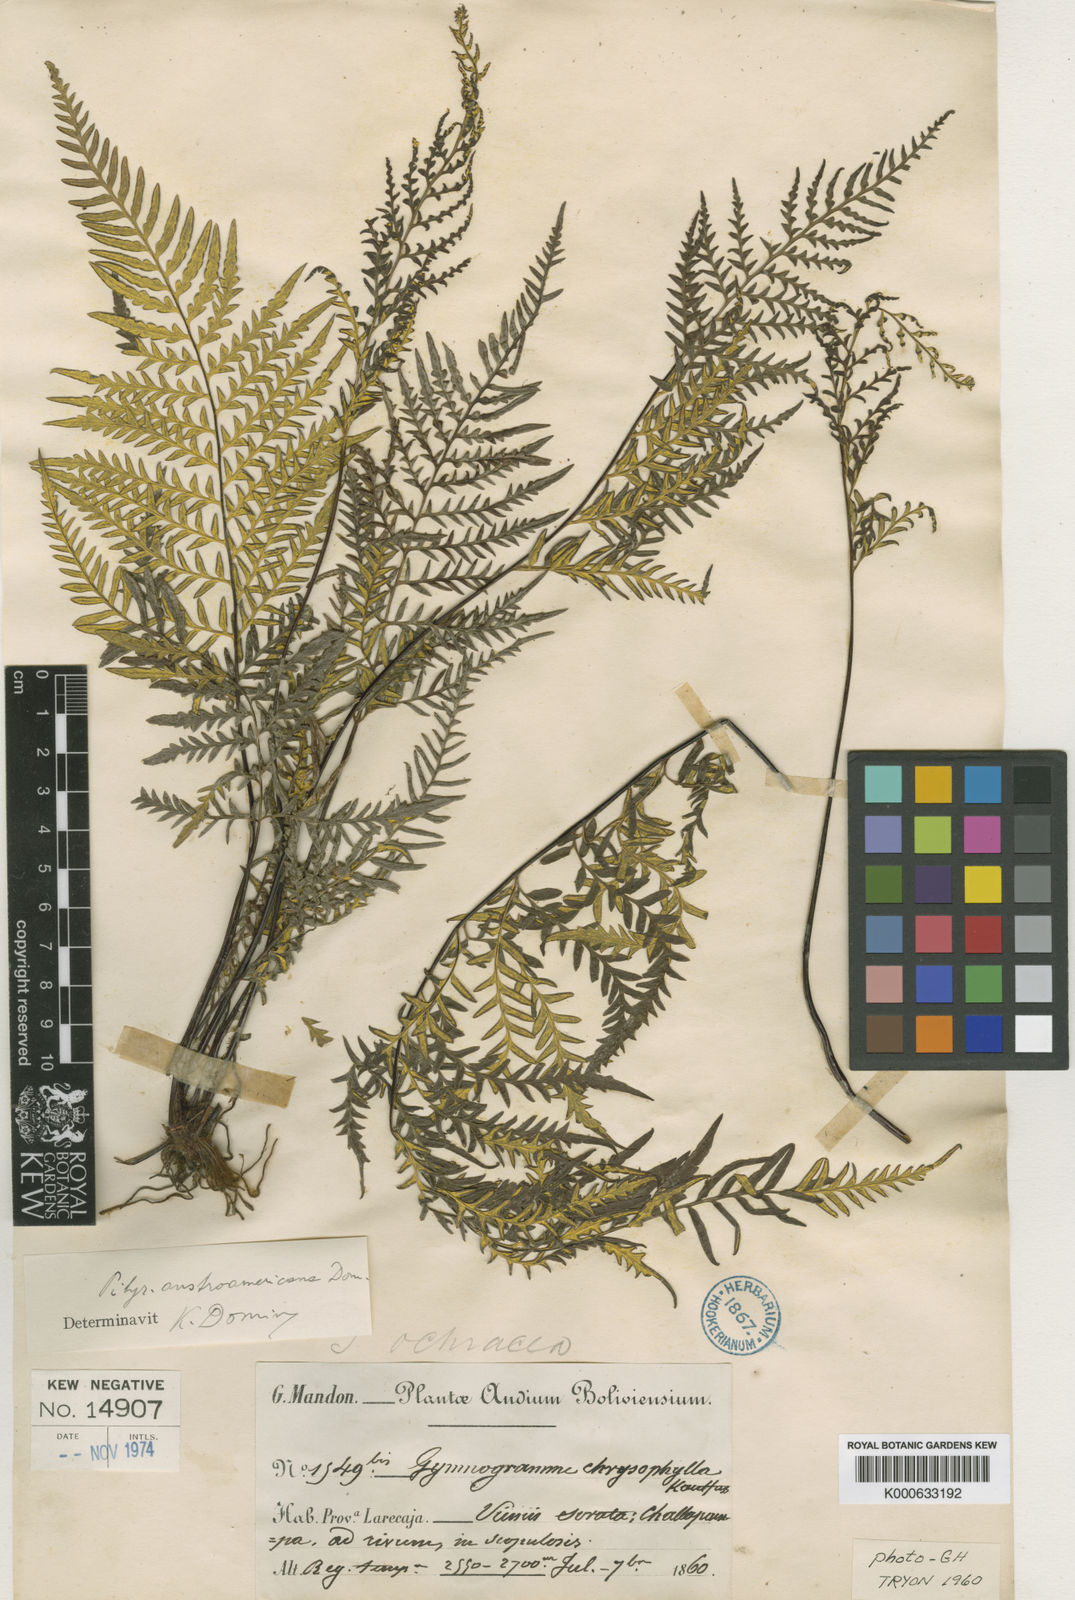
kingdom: Plantae
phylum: Tracheophyta
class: Polypodiopsida
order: Polypodiales
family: Pteridaceae
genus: Pityrogramma
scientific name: Pityrogramma austroamericana
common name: Leatherleaf goldback fern
